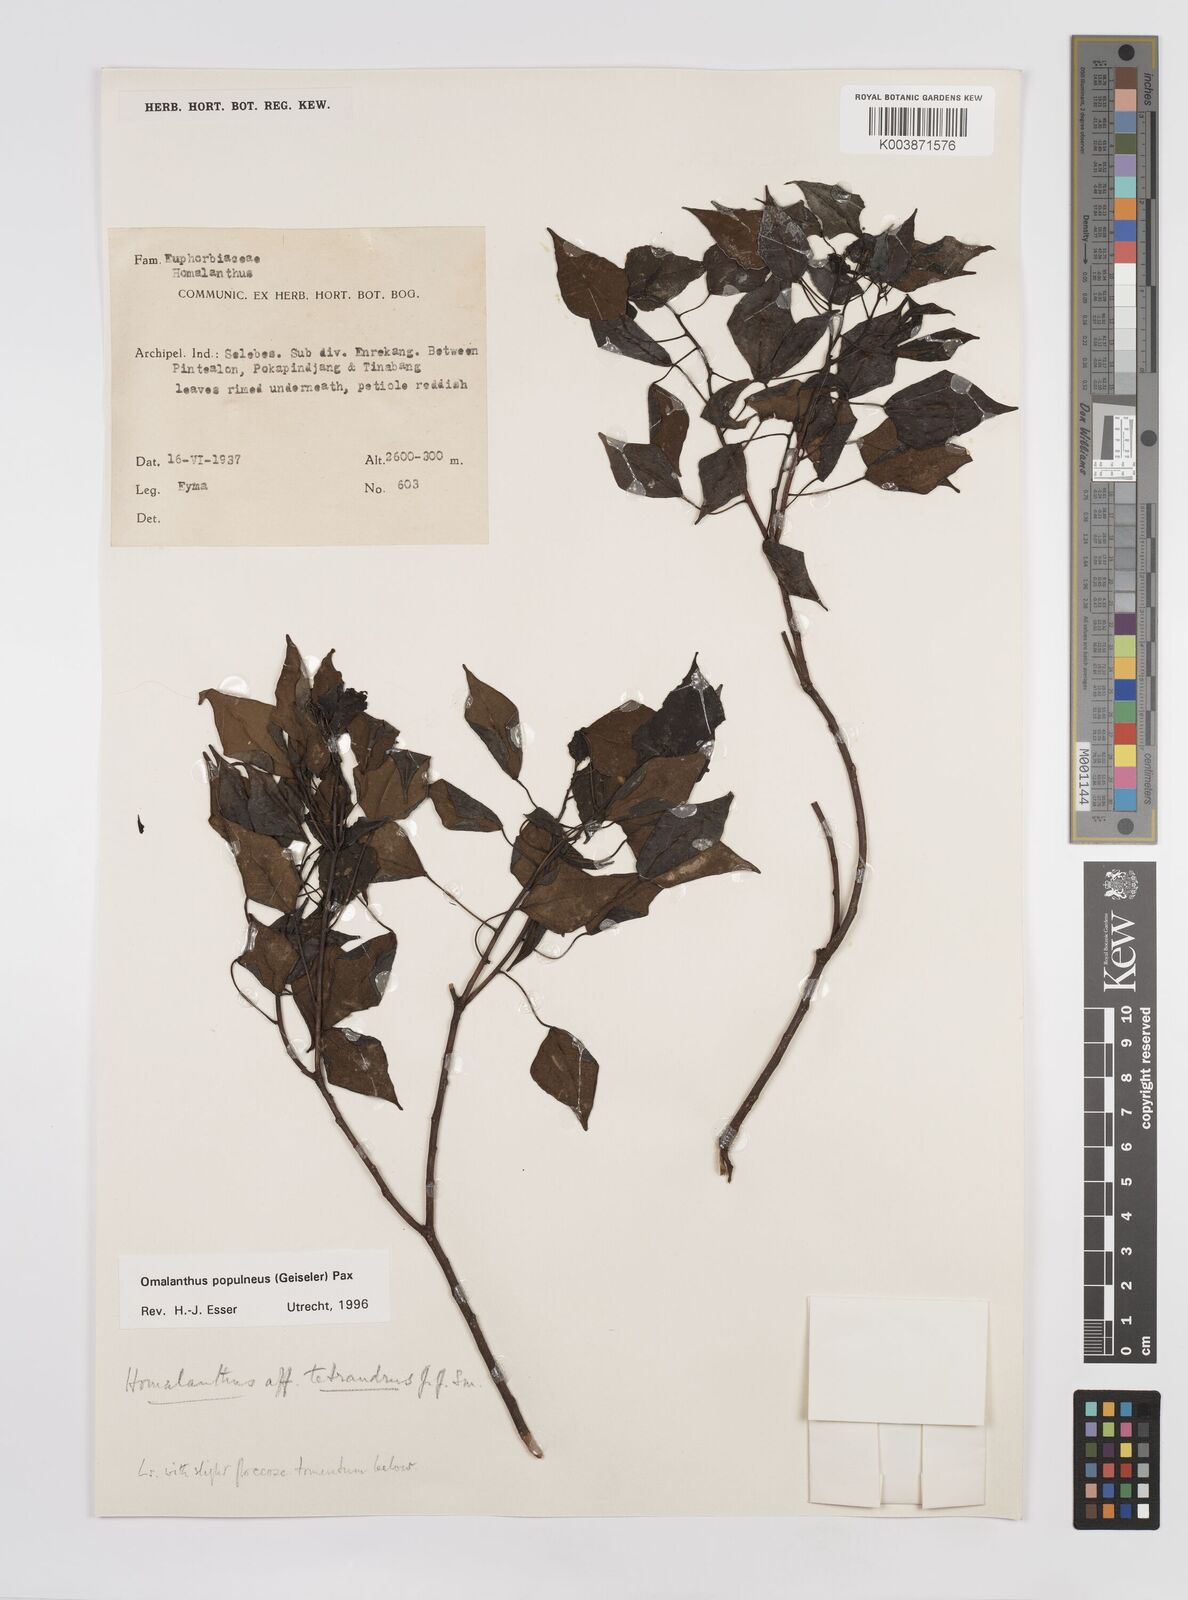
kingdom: Plantae
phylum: Tracheophyta
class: Magnoliopsida
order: Malpighiales
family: Euphorbiaceae
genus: Homalanthus
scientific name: Homalanthus populneus
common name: Spurge
